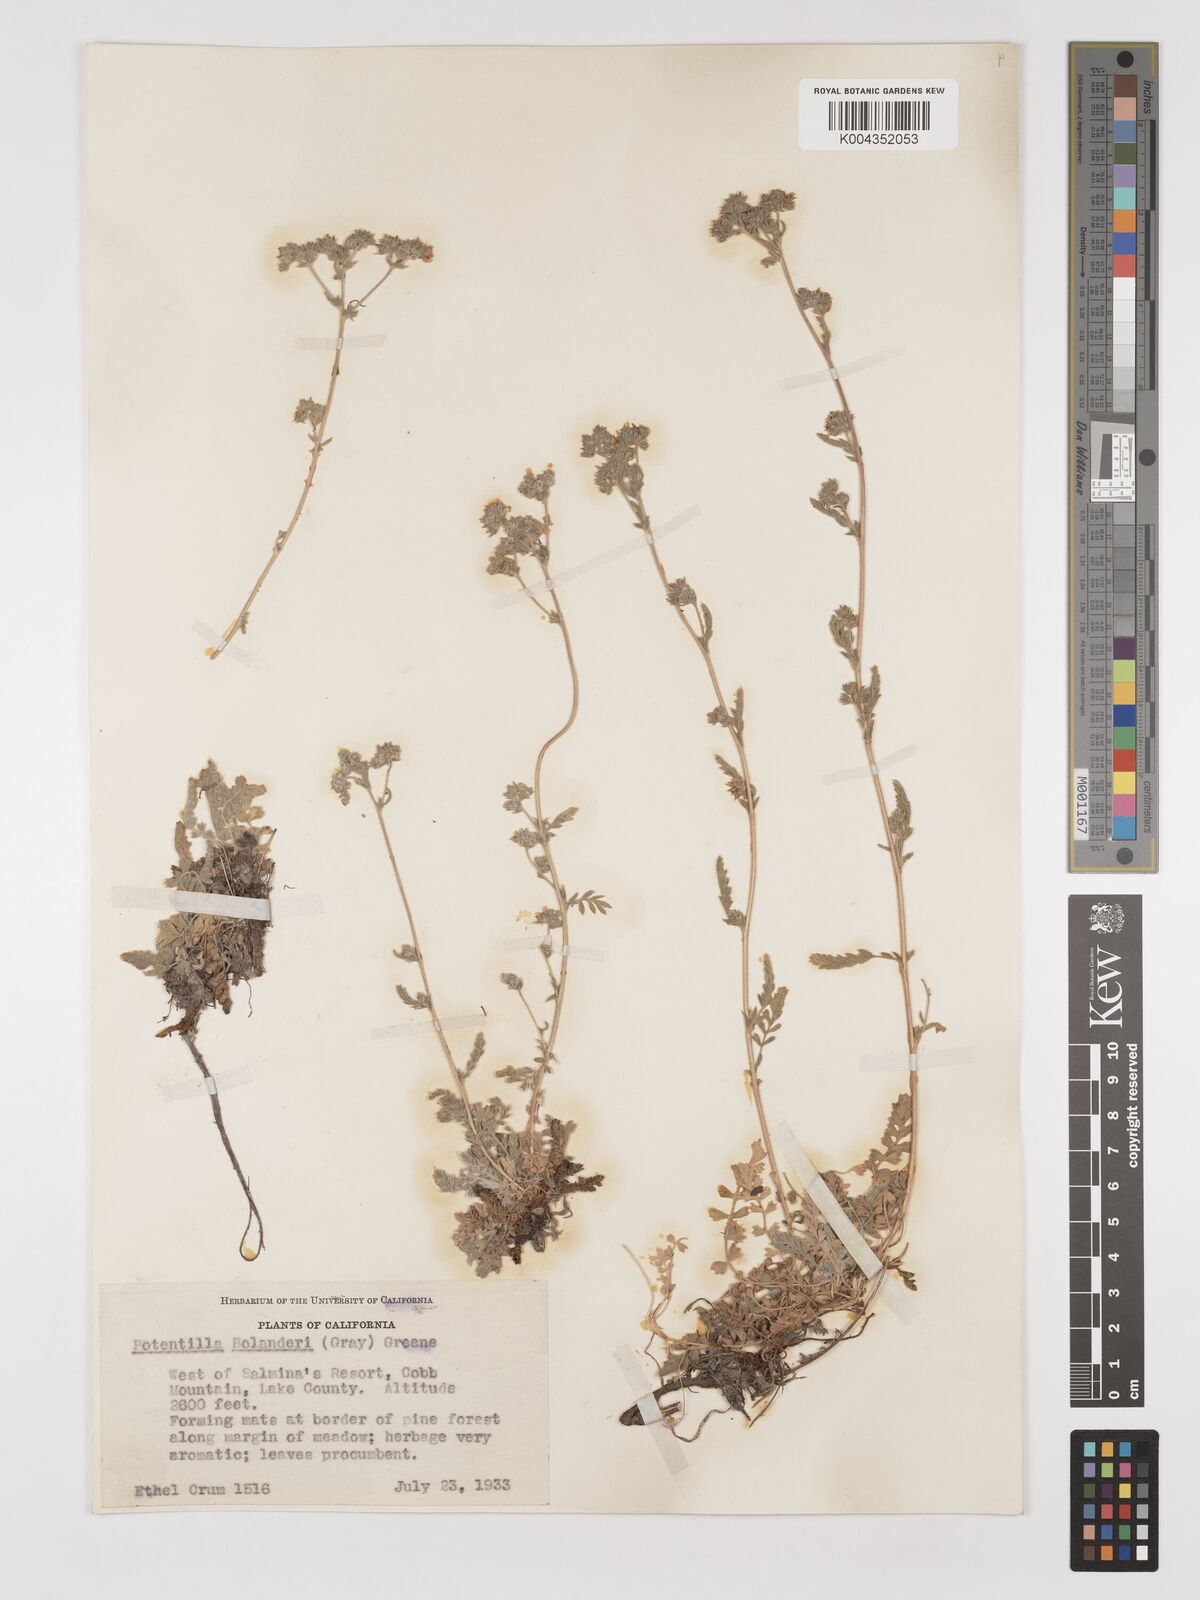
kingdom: Plantae
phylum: Tracheophyta
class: Magnoliopsida
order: Rosales
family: Rosaceae
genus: Potentilla
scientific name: Potentilla bolanderi
